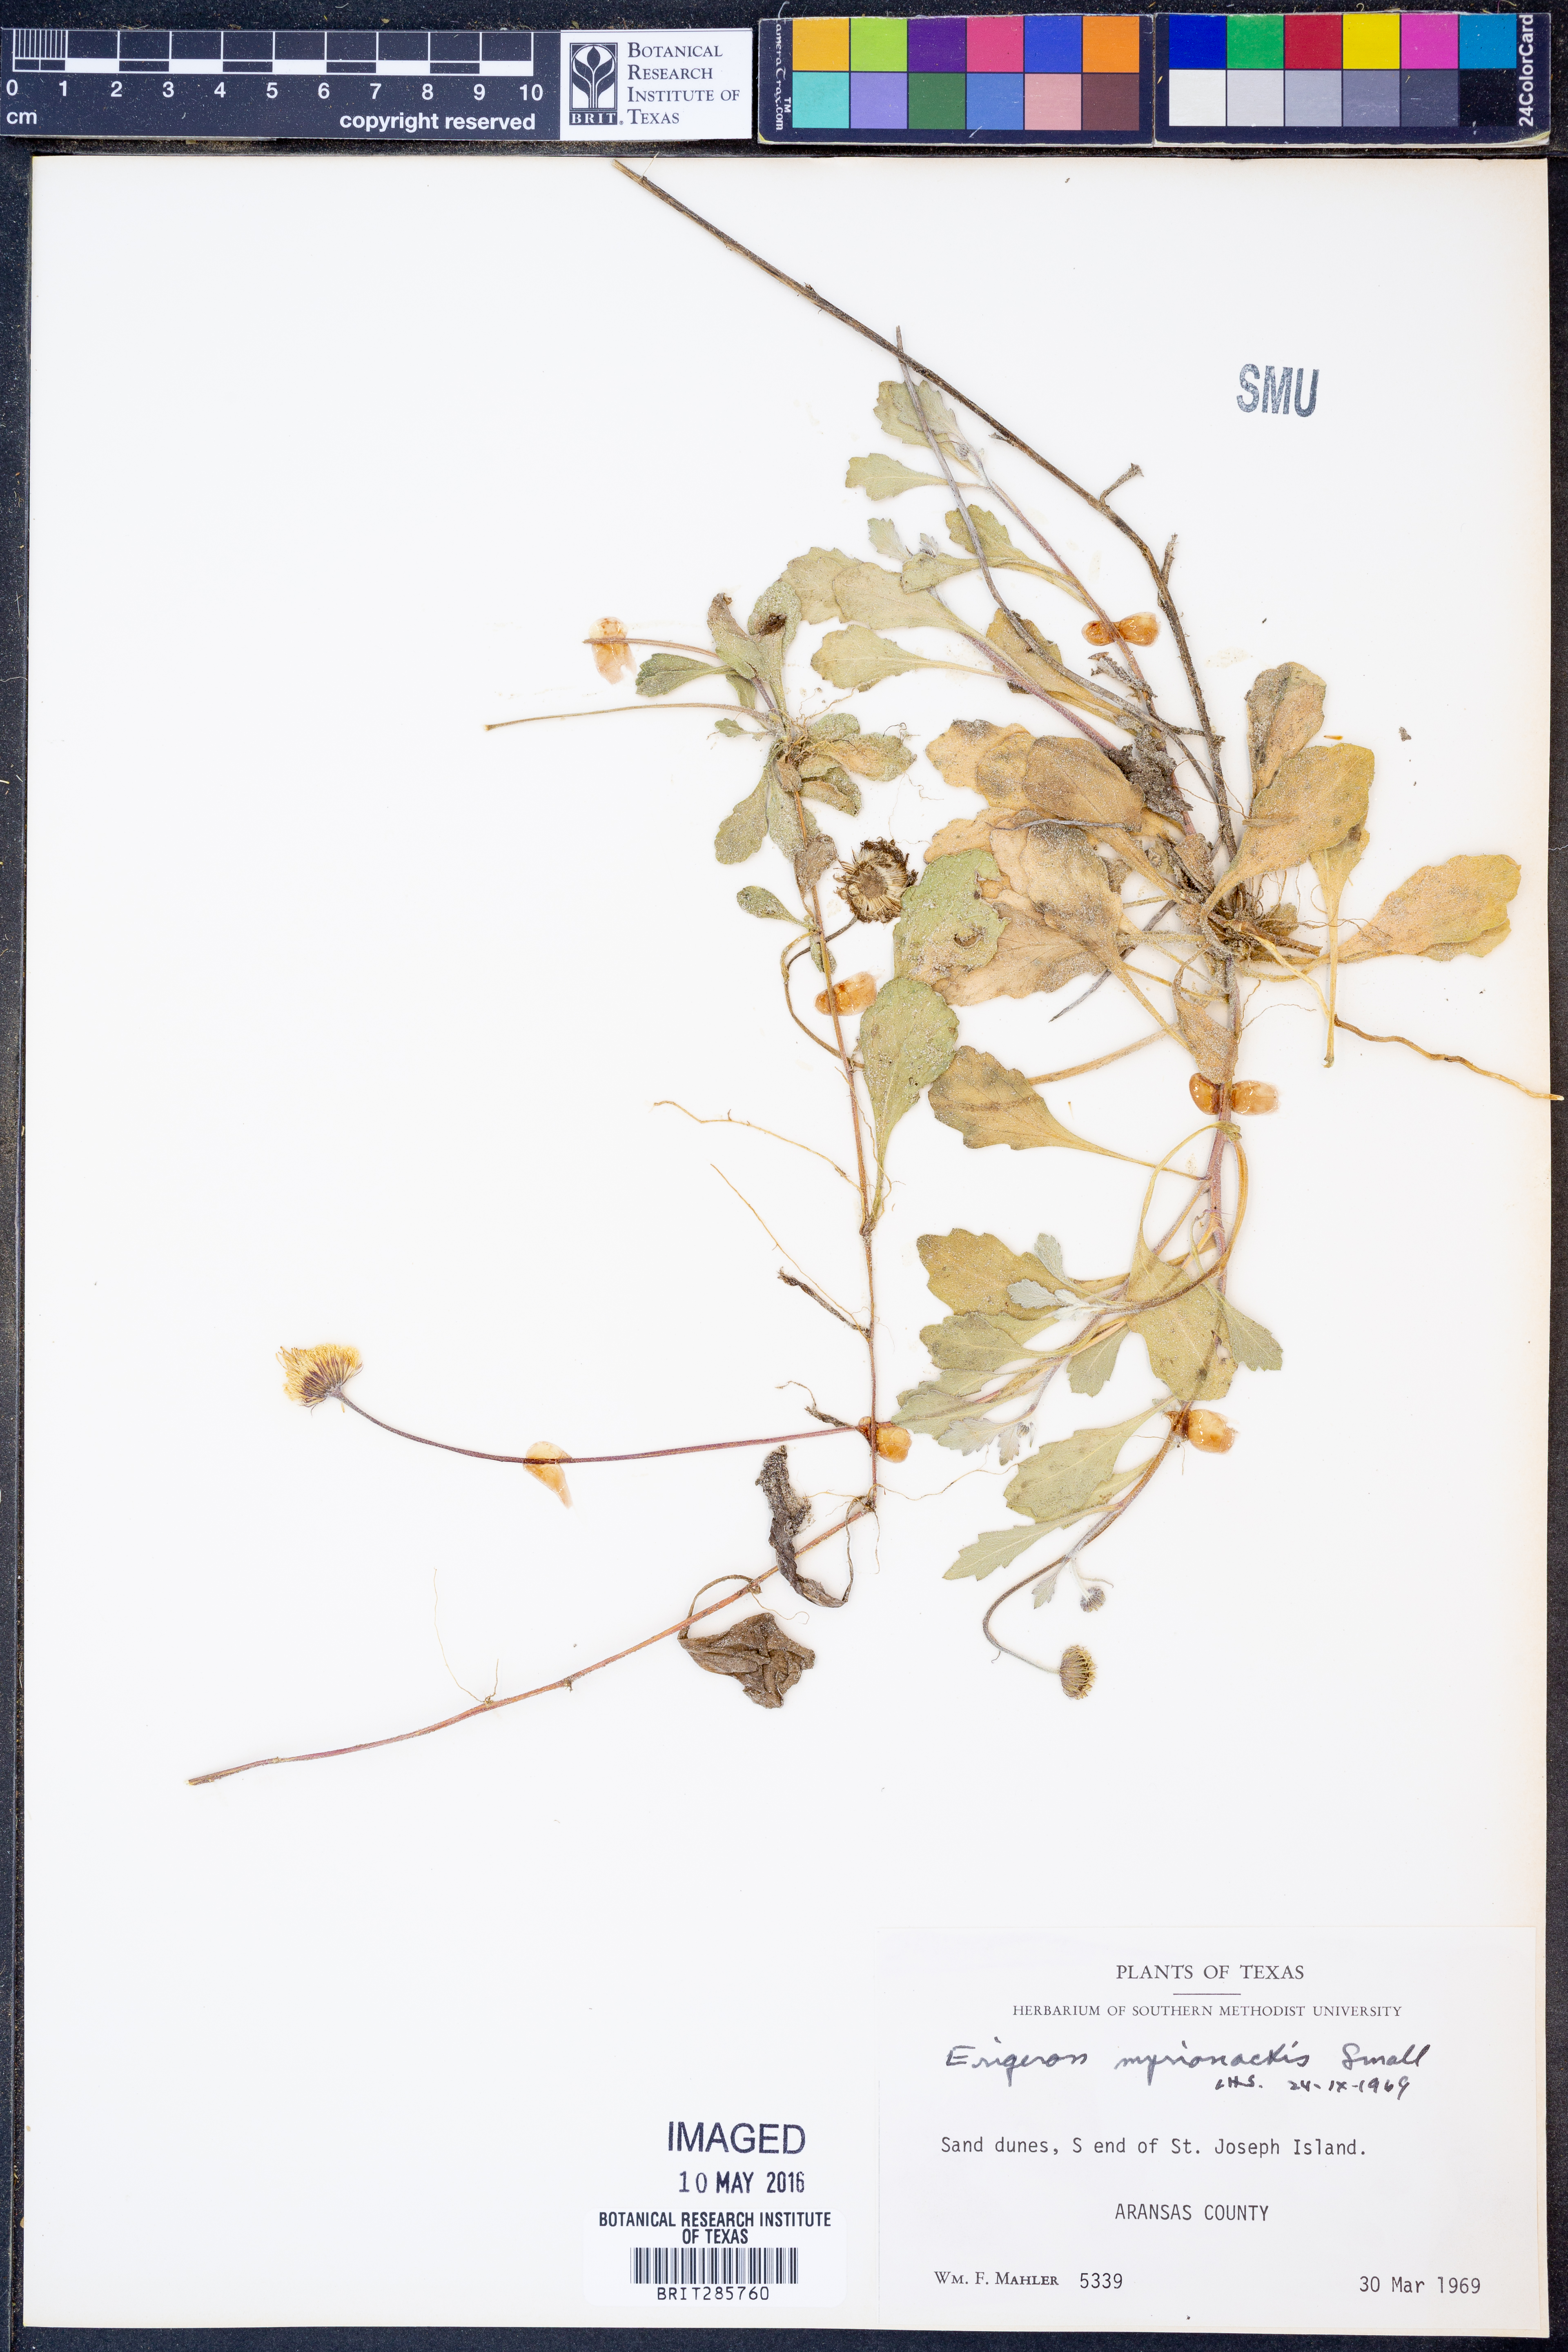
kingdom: Plantae
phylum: Tracheophyta
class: Magnoliopsida
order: Asterales
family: Asteraceae
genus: Erigeron
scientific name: Erigeron procumbens
